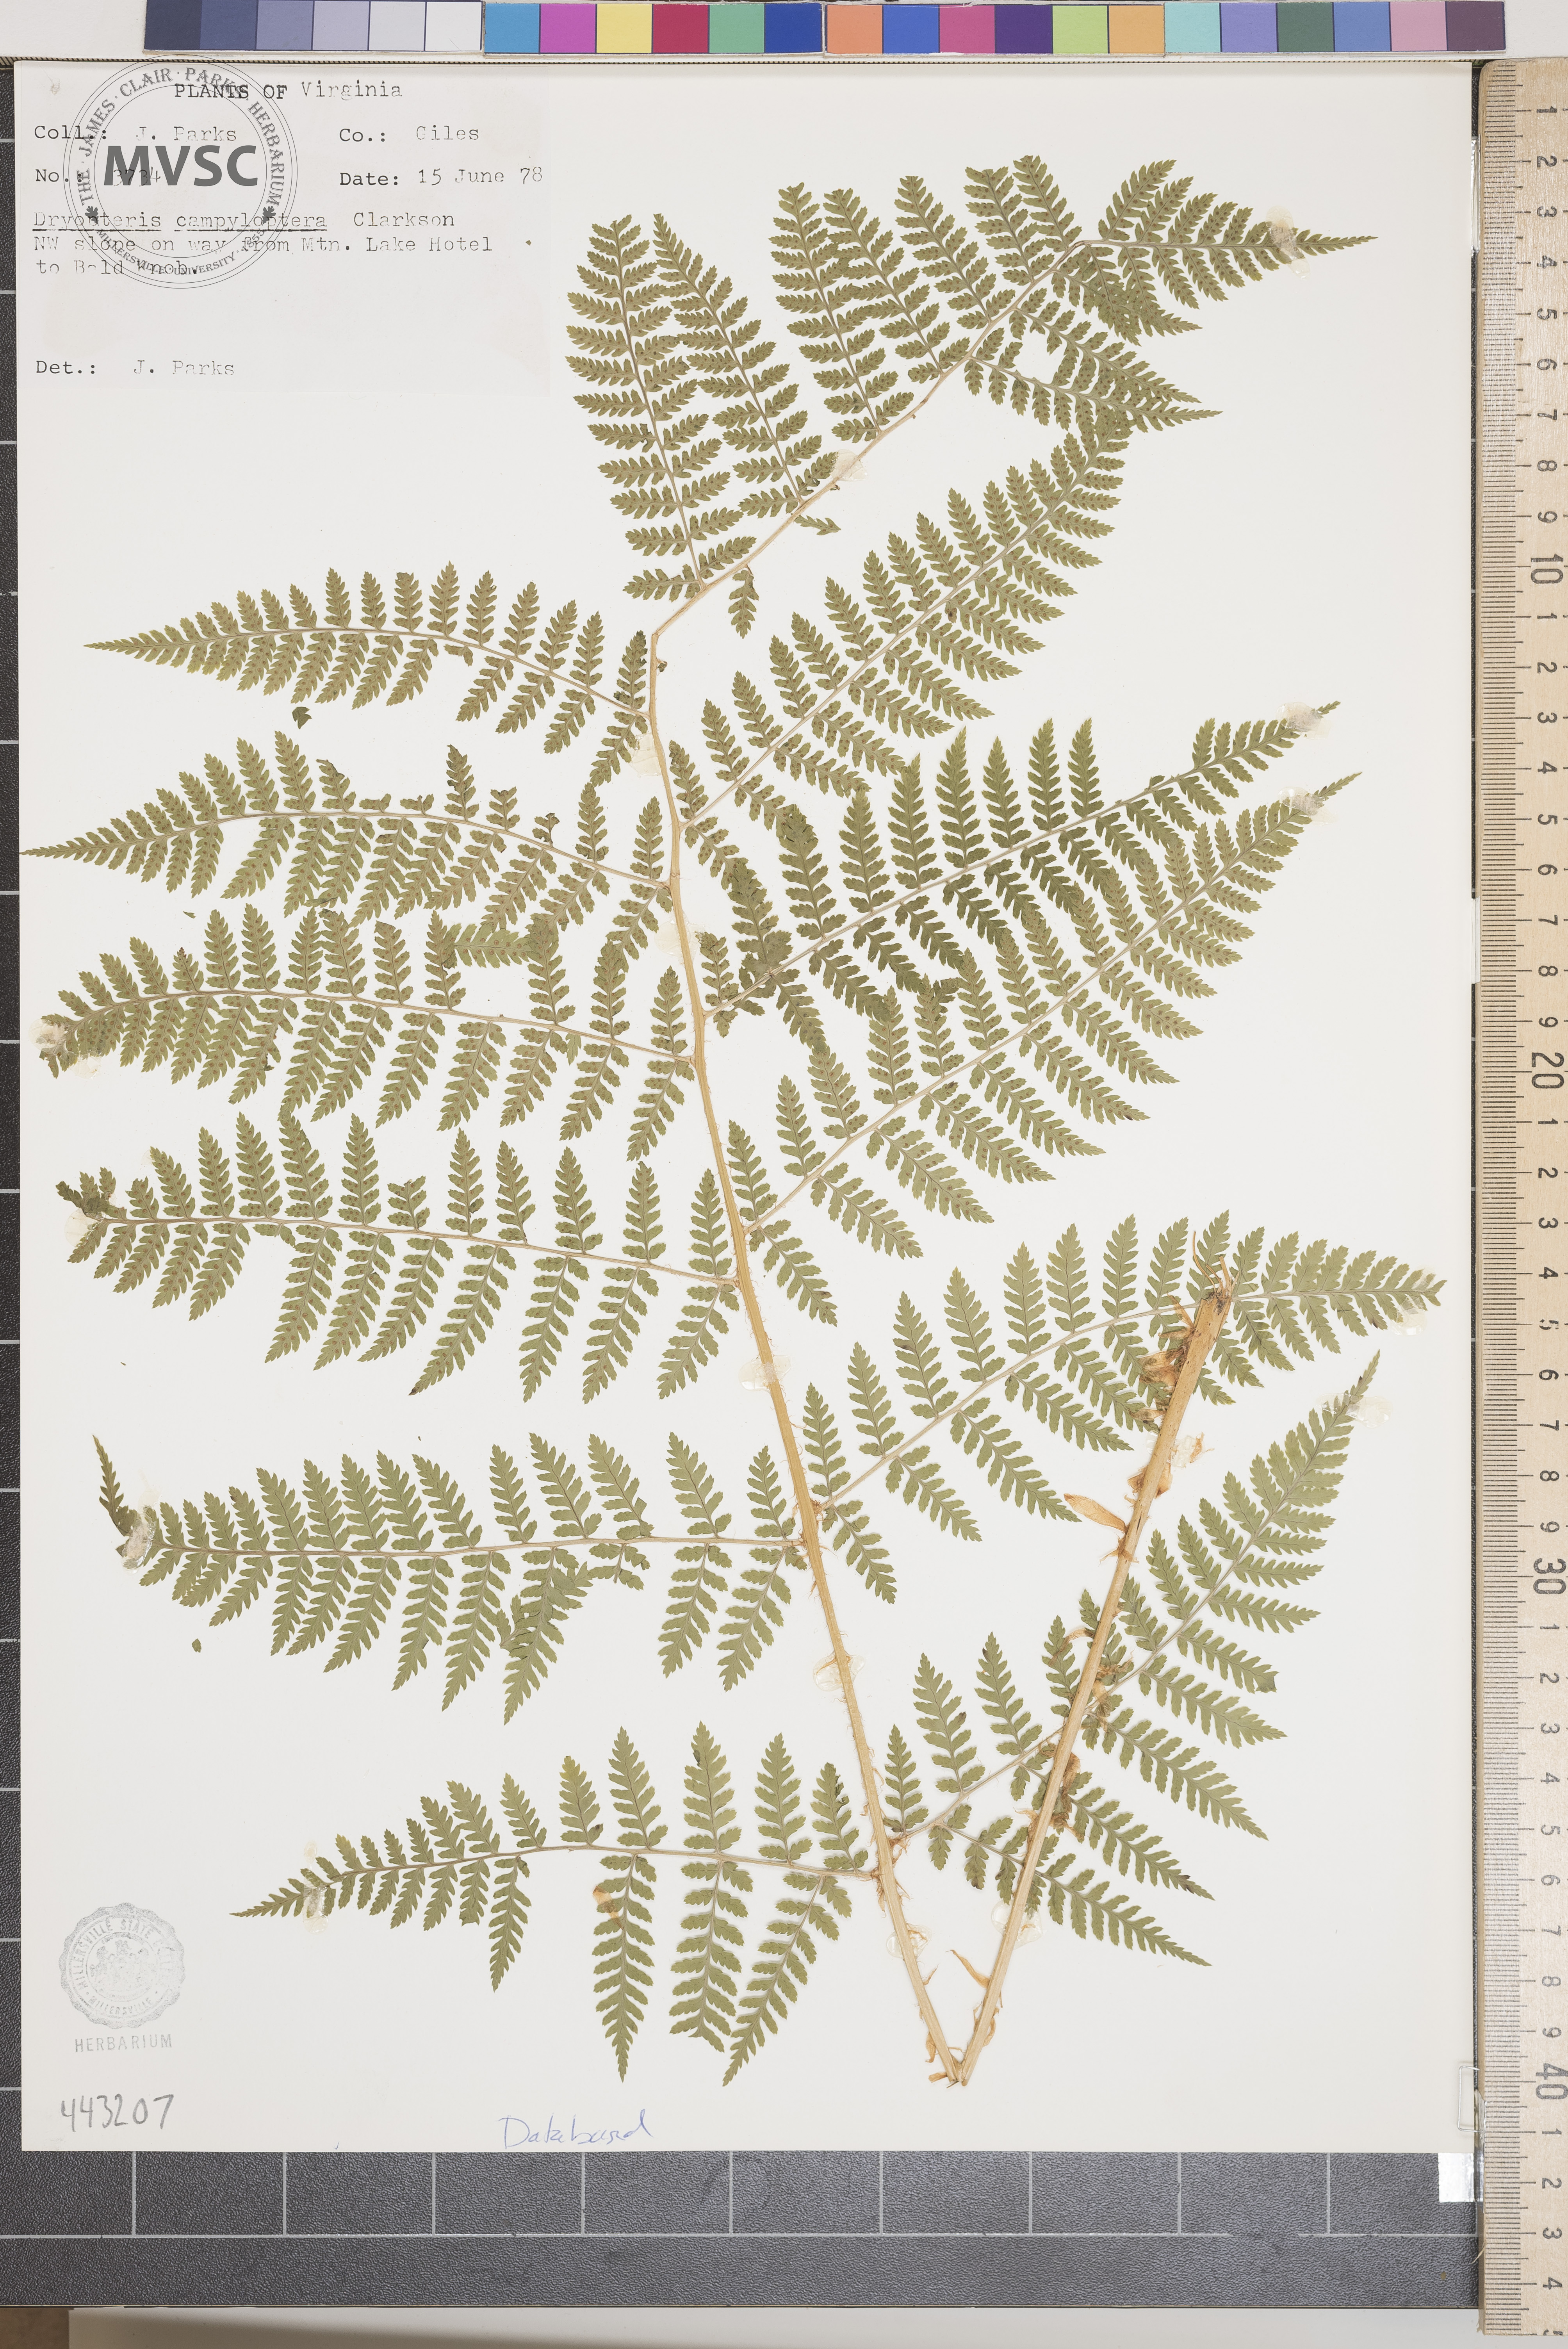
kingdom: Plantae
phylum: Tracheophyta
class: Polypodiopsida
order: Polypodiales
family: Dryopteridaceae
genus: Dryopteris
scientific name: Dryopteris campyloptera
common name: Mountain wood fern
